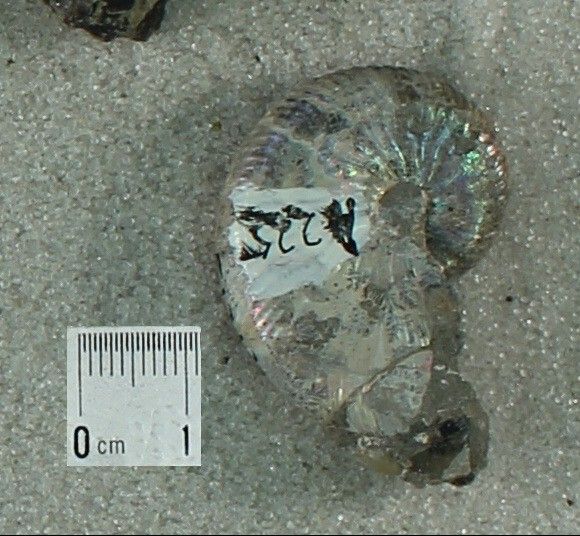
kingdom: Animalia
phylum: Mollusca
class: Cephalopoda
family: Scaphitidae
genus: Hoploscaphites
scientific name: Hoploscaphites nicolletii
